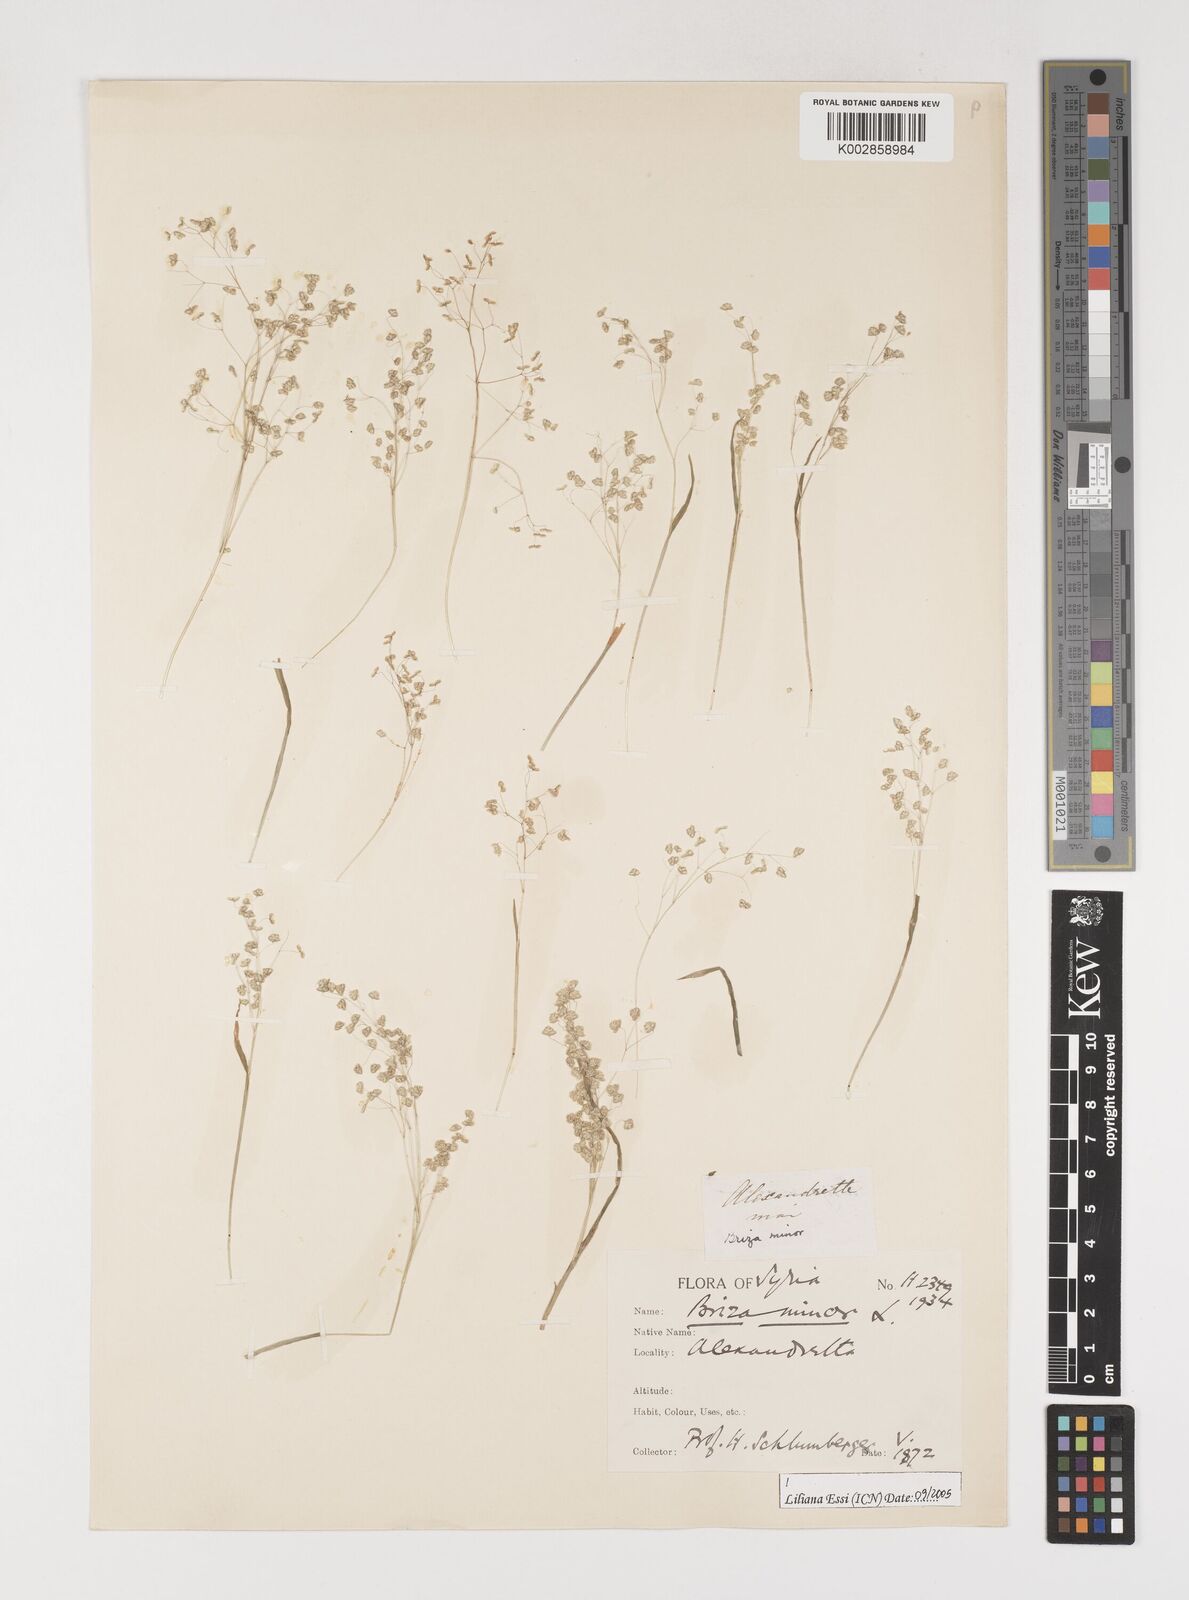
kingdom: Plantae
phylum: Tracheophyta
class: Liliopsida
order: Poales
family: Poaceae
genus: Briza
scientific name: Briza minor
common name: Lesser quaking-grass
